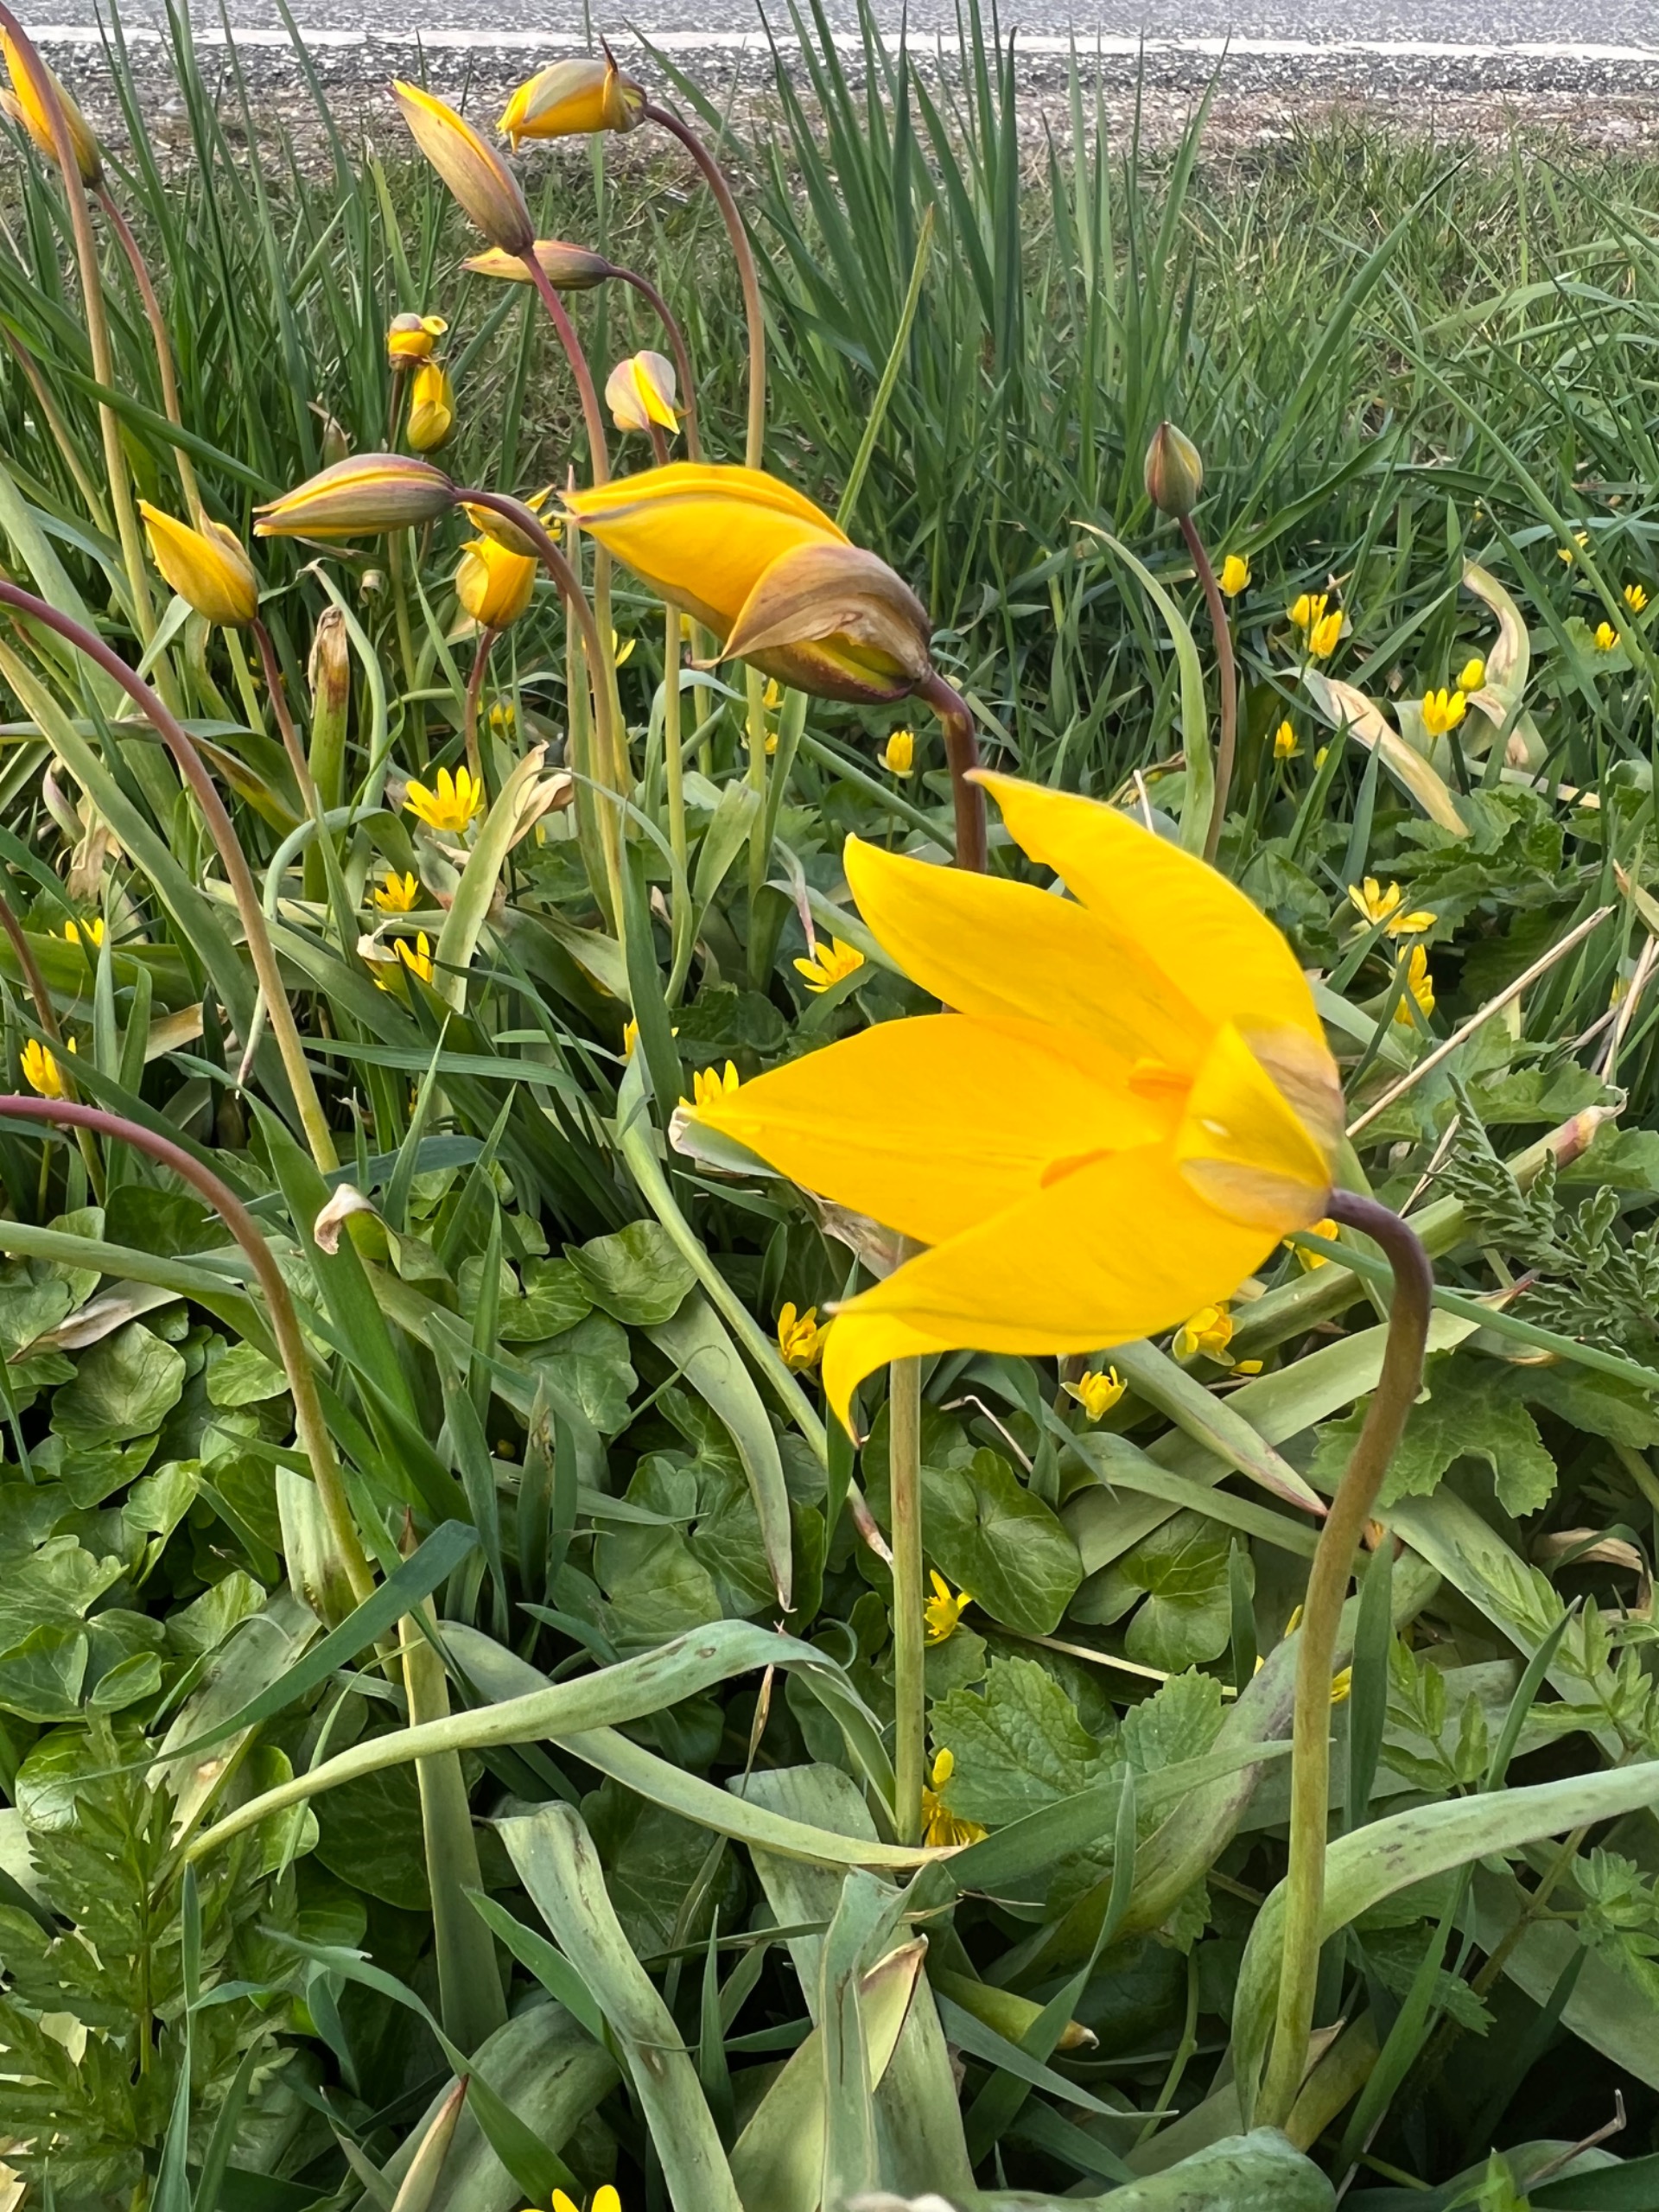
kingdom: Plantae
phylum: Tracheophyta
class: Liliopsida
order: Liliales
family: Liliaceae
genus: Tulipa
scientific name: Tulipa sylvestris
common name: Vild tulipan
